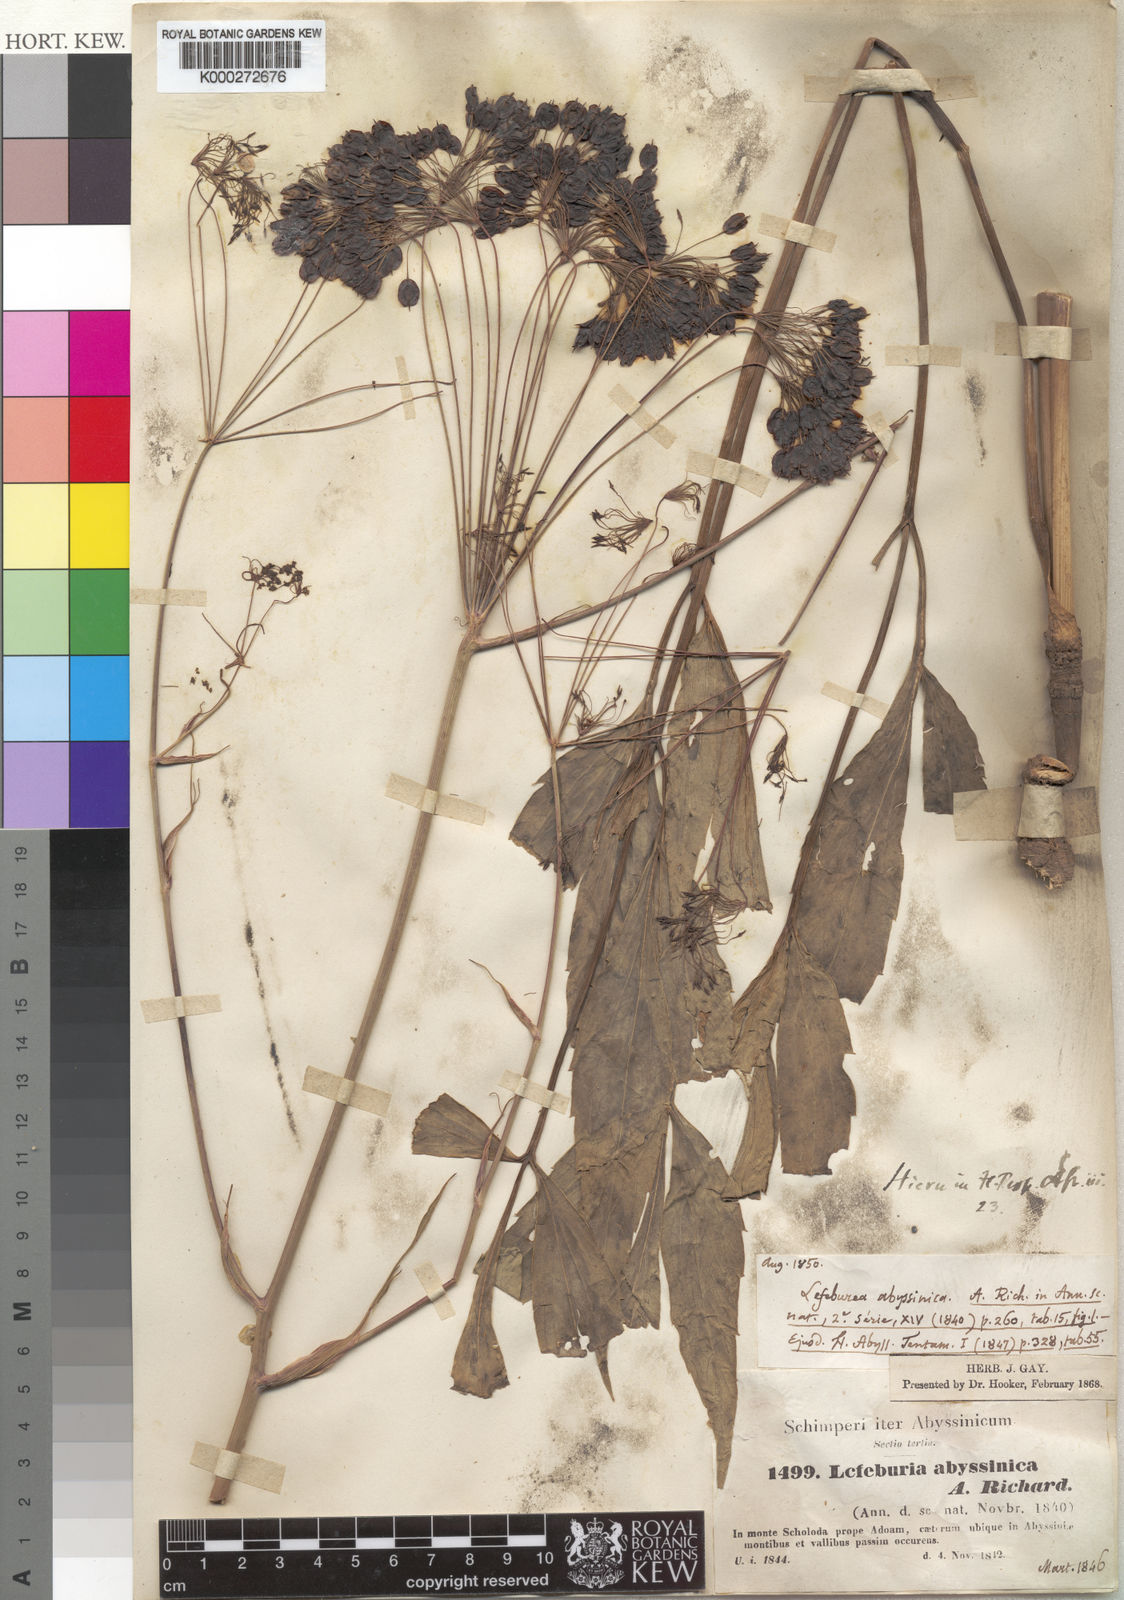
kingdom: Plantae
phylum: Tracheophyta
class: Magnoliopsida
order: Apiales
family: Apiaceae
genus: Lefebvrea
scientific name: Lefebvrea abyssinica
